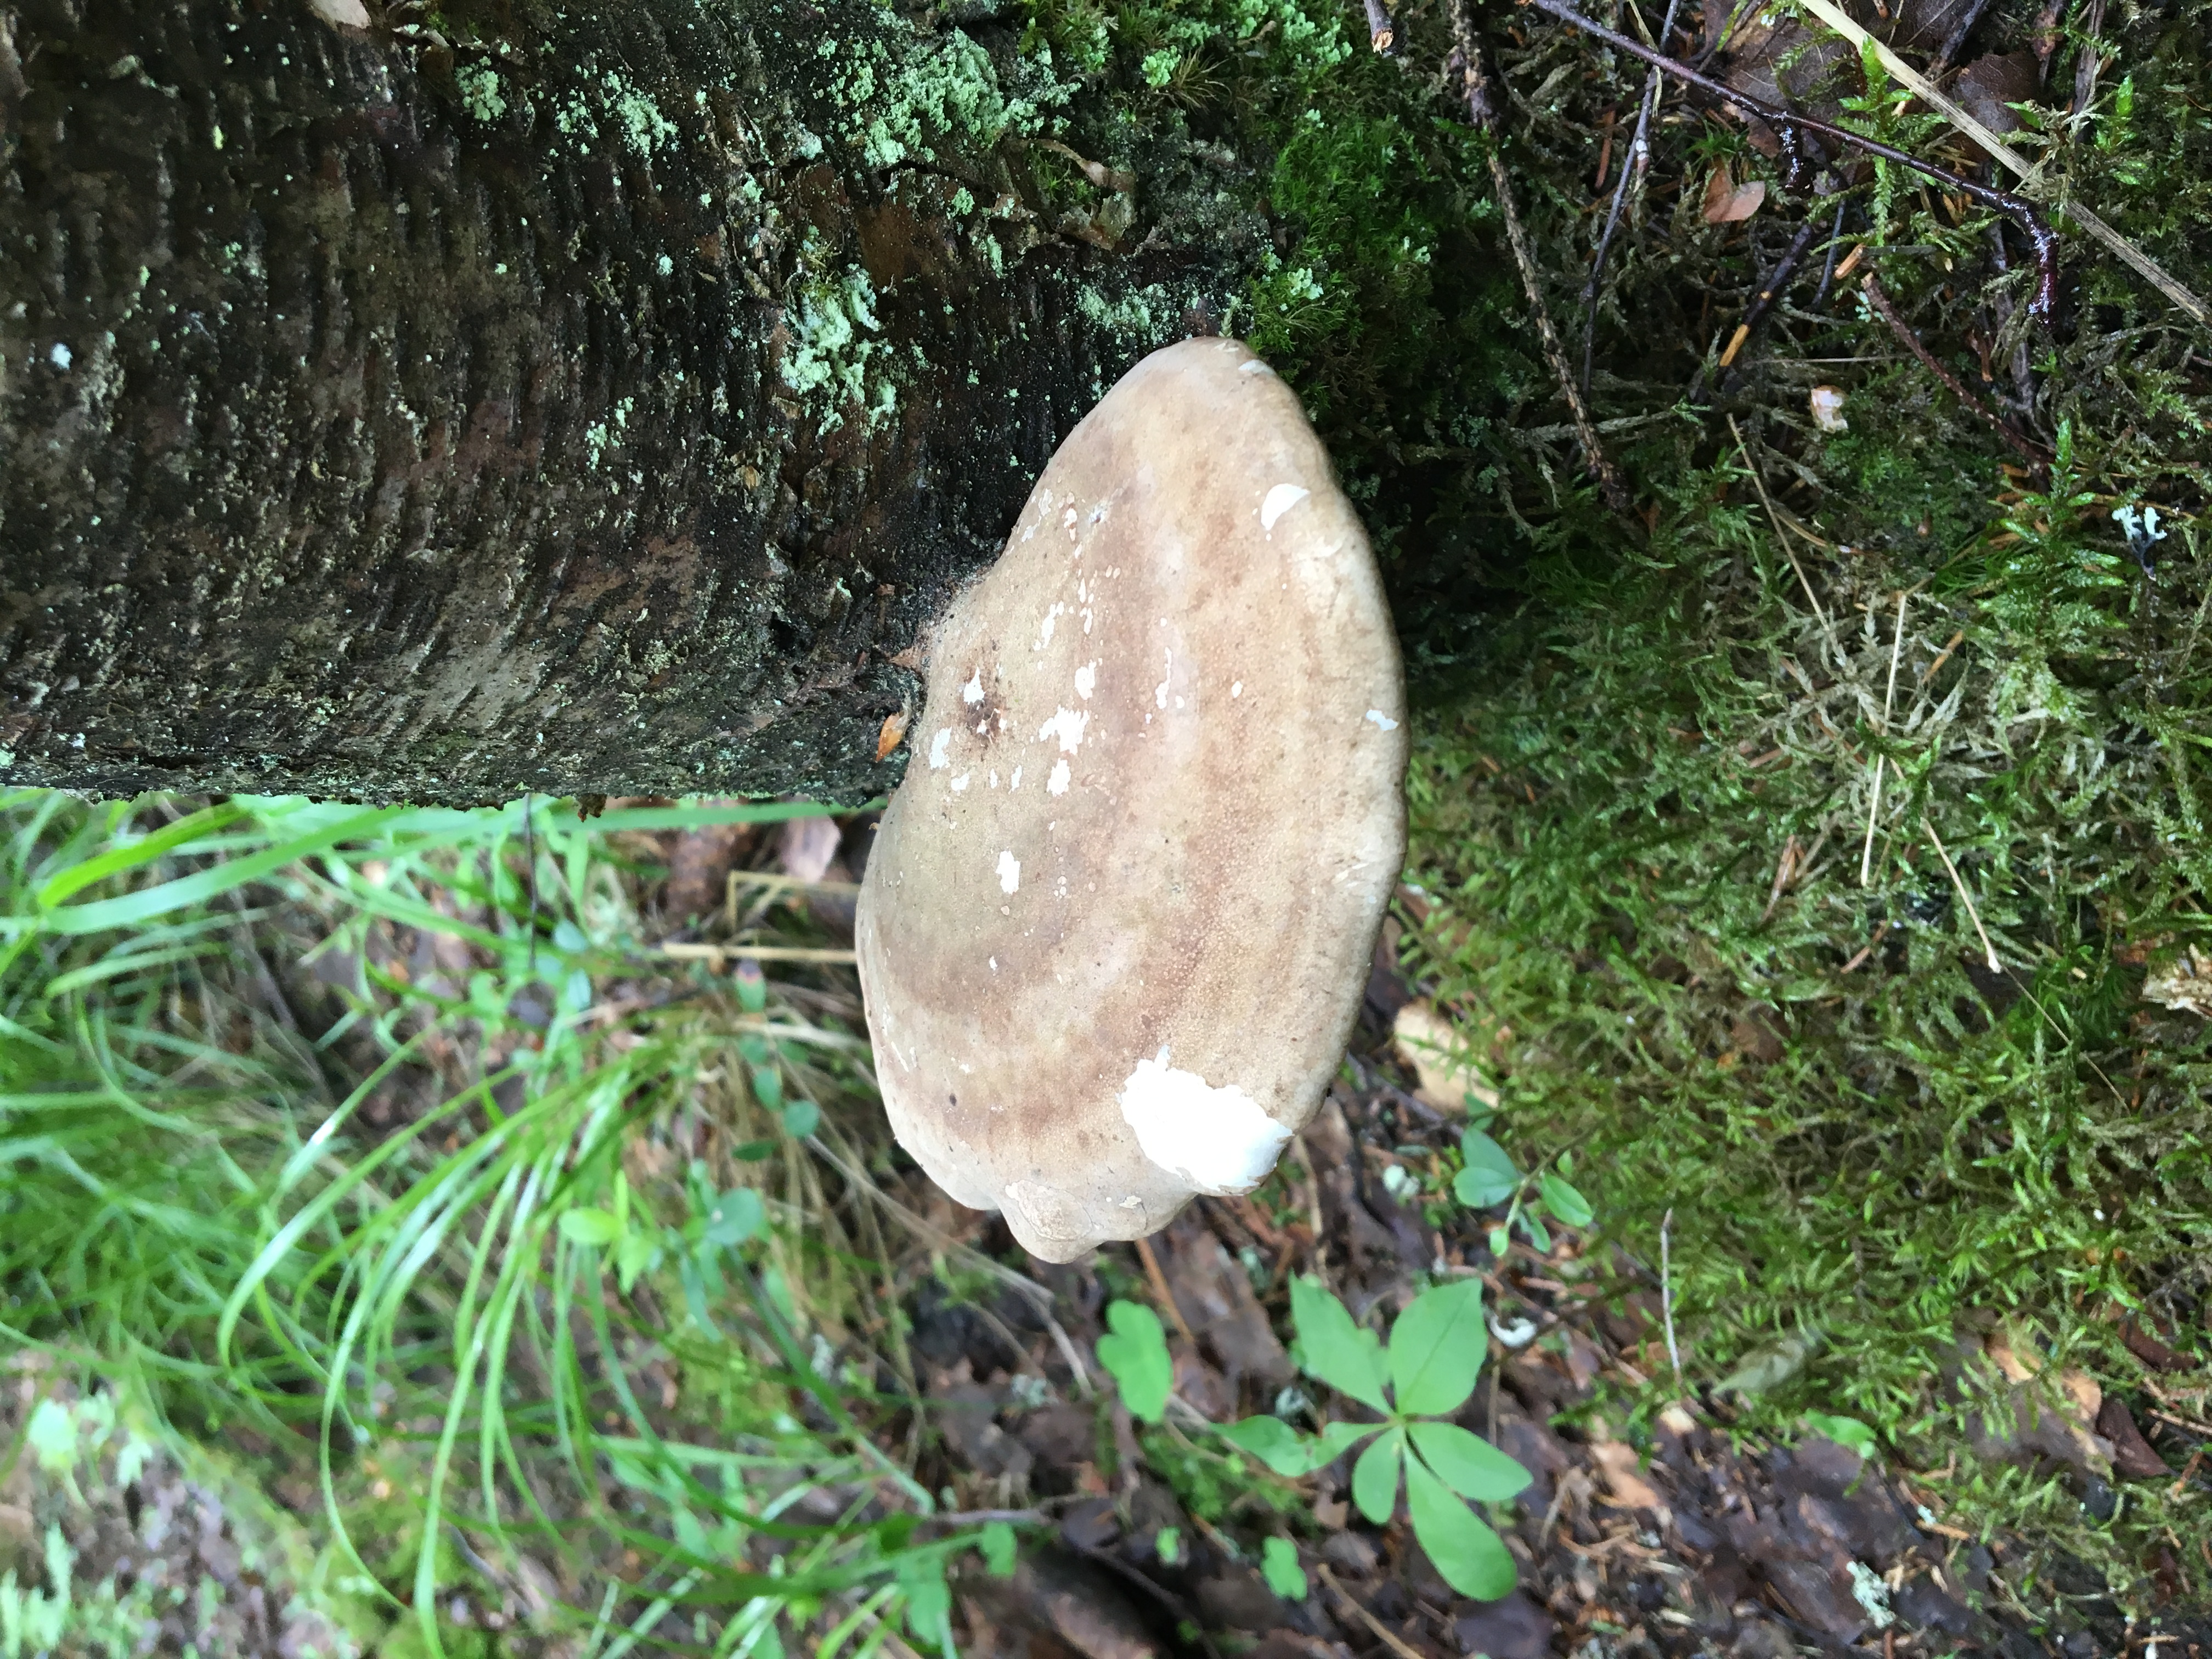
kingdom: Fungi
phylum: Basidiomycota
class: Agaricomycetes
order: Polyporales
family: Fomitopsidaceae
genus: Fomitopsis
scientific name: Fomitopsis betulina
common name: Birch polypore
